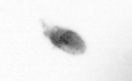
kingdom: Animalia
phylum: Arthropoda
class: Copepoda
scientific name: Copepoda
